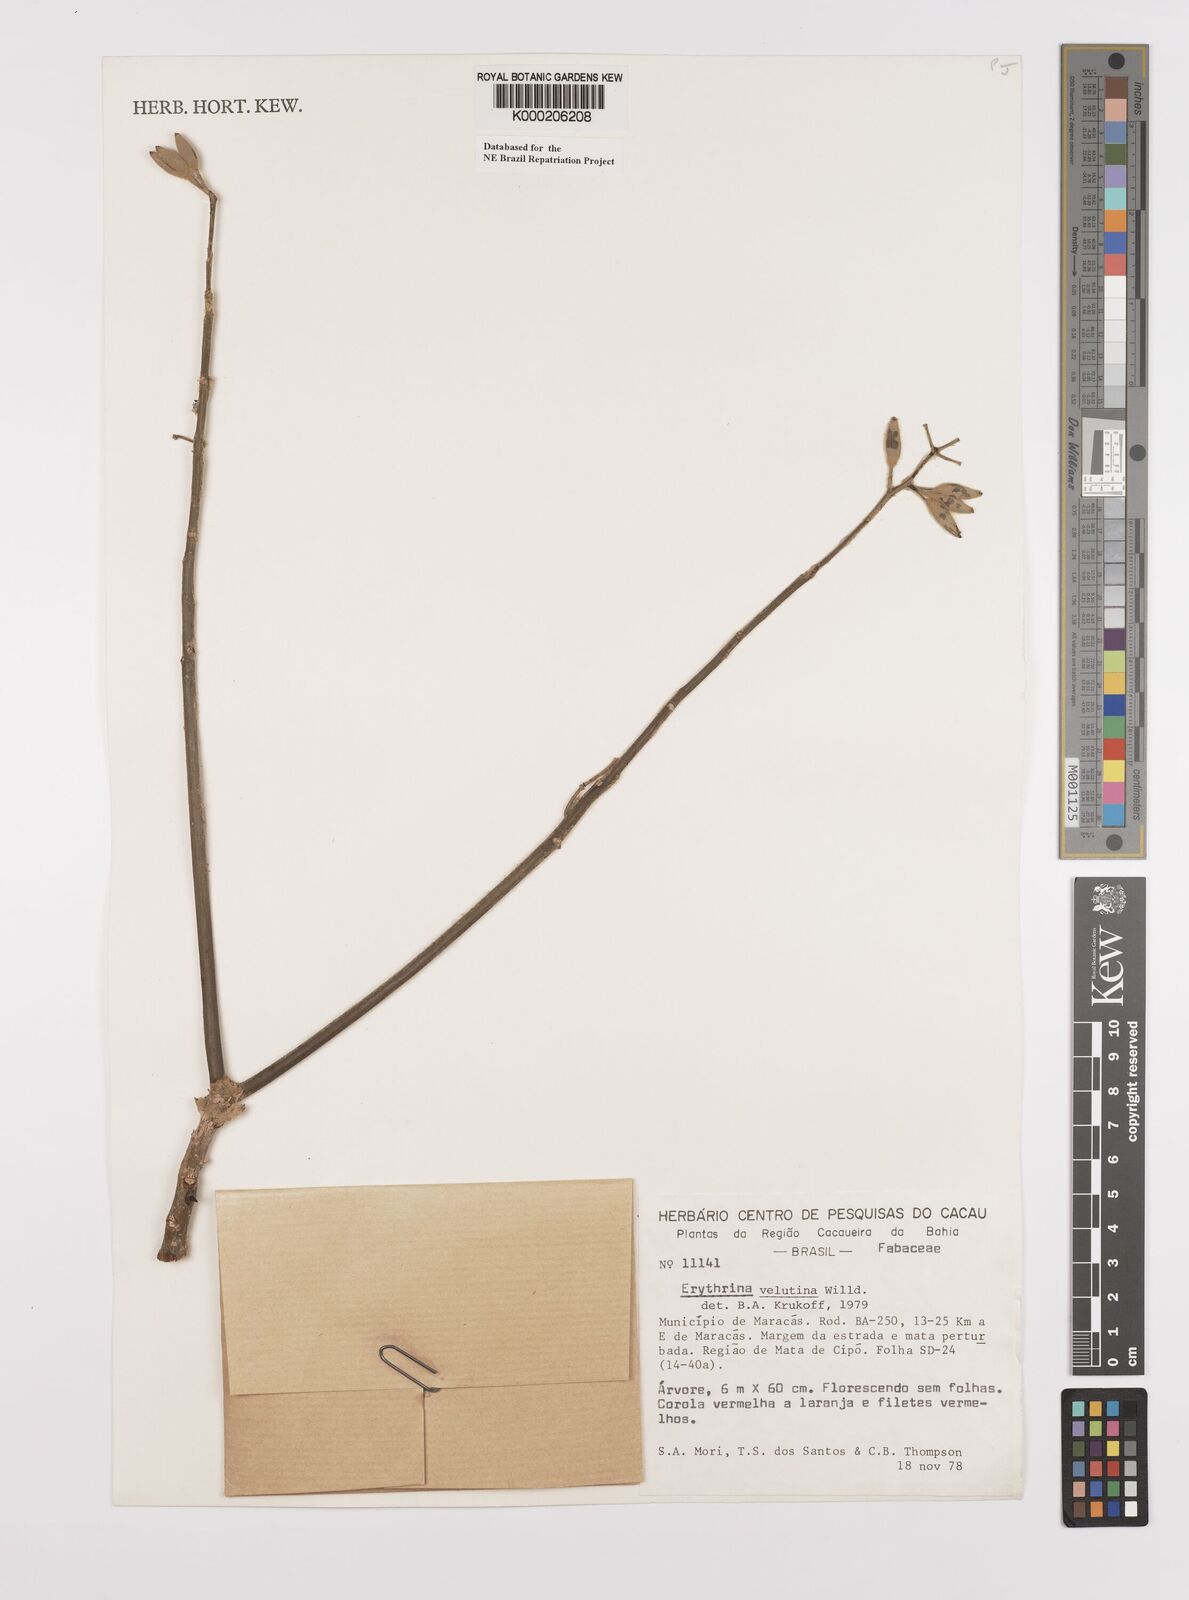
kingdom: Plantae
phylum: Tracheophyta
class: Magnoliopsida
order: Fabales
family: Fabaceae
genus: Erythrina
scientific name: Erythrina velutina
